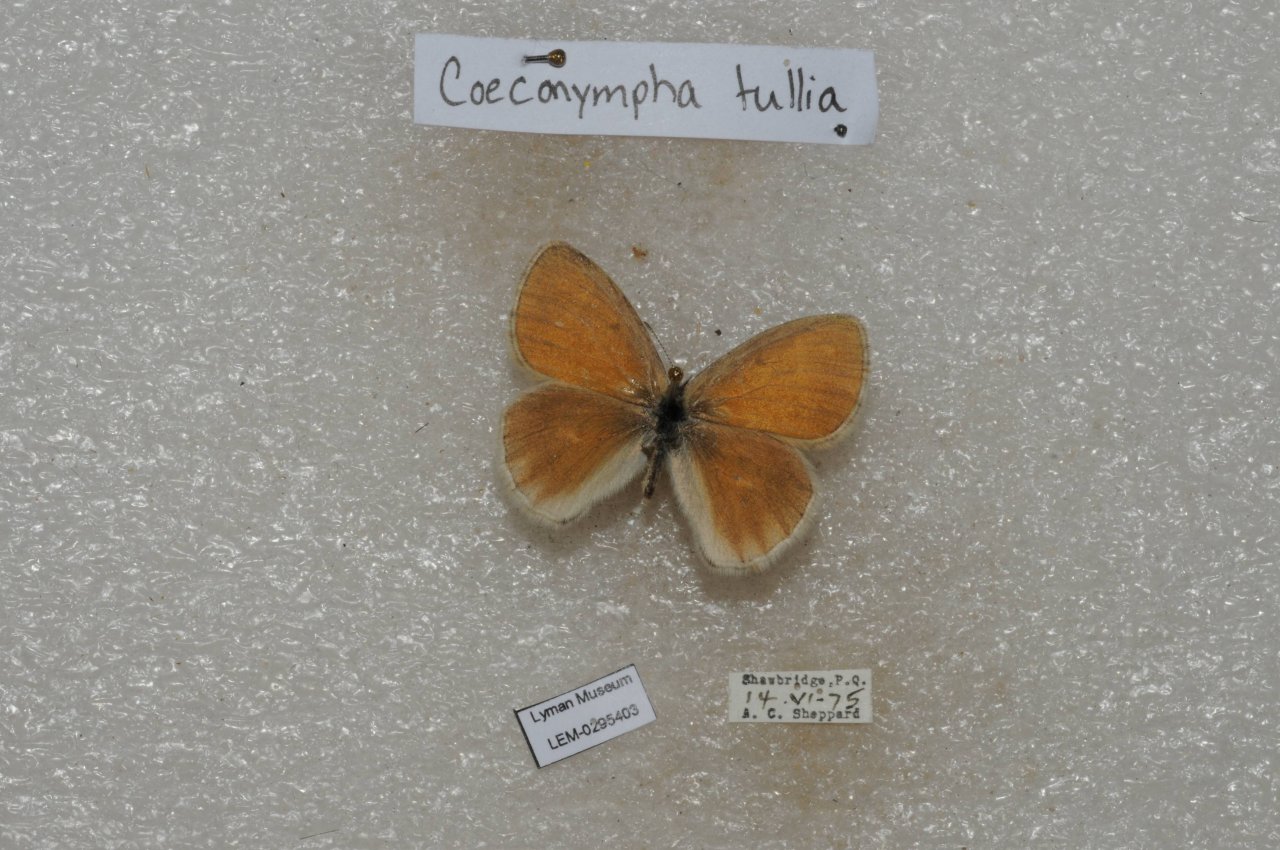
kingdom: Animalia
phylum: Arthropoda
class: Insecta
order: Lepidoptera
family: Nymphalidae
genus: Coenonympha
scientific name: Coenonympha tullia
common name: Large Heath
